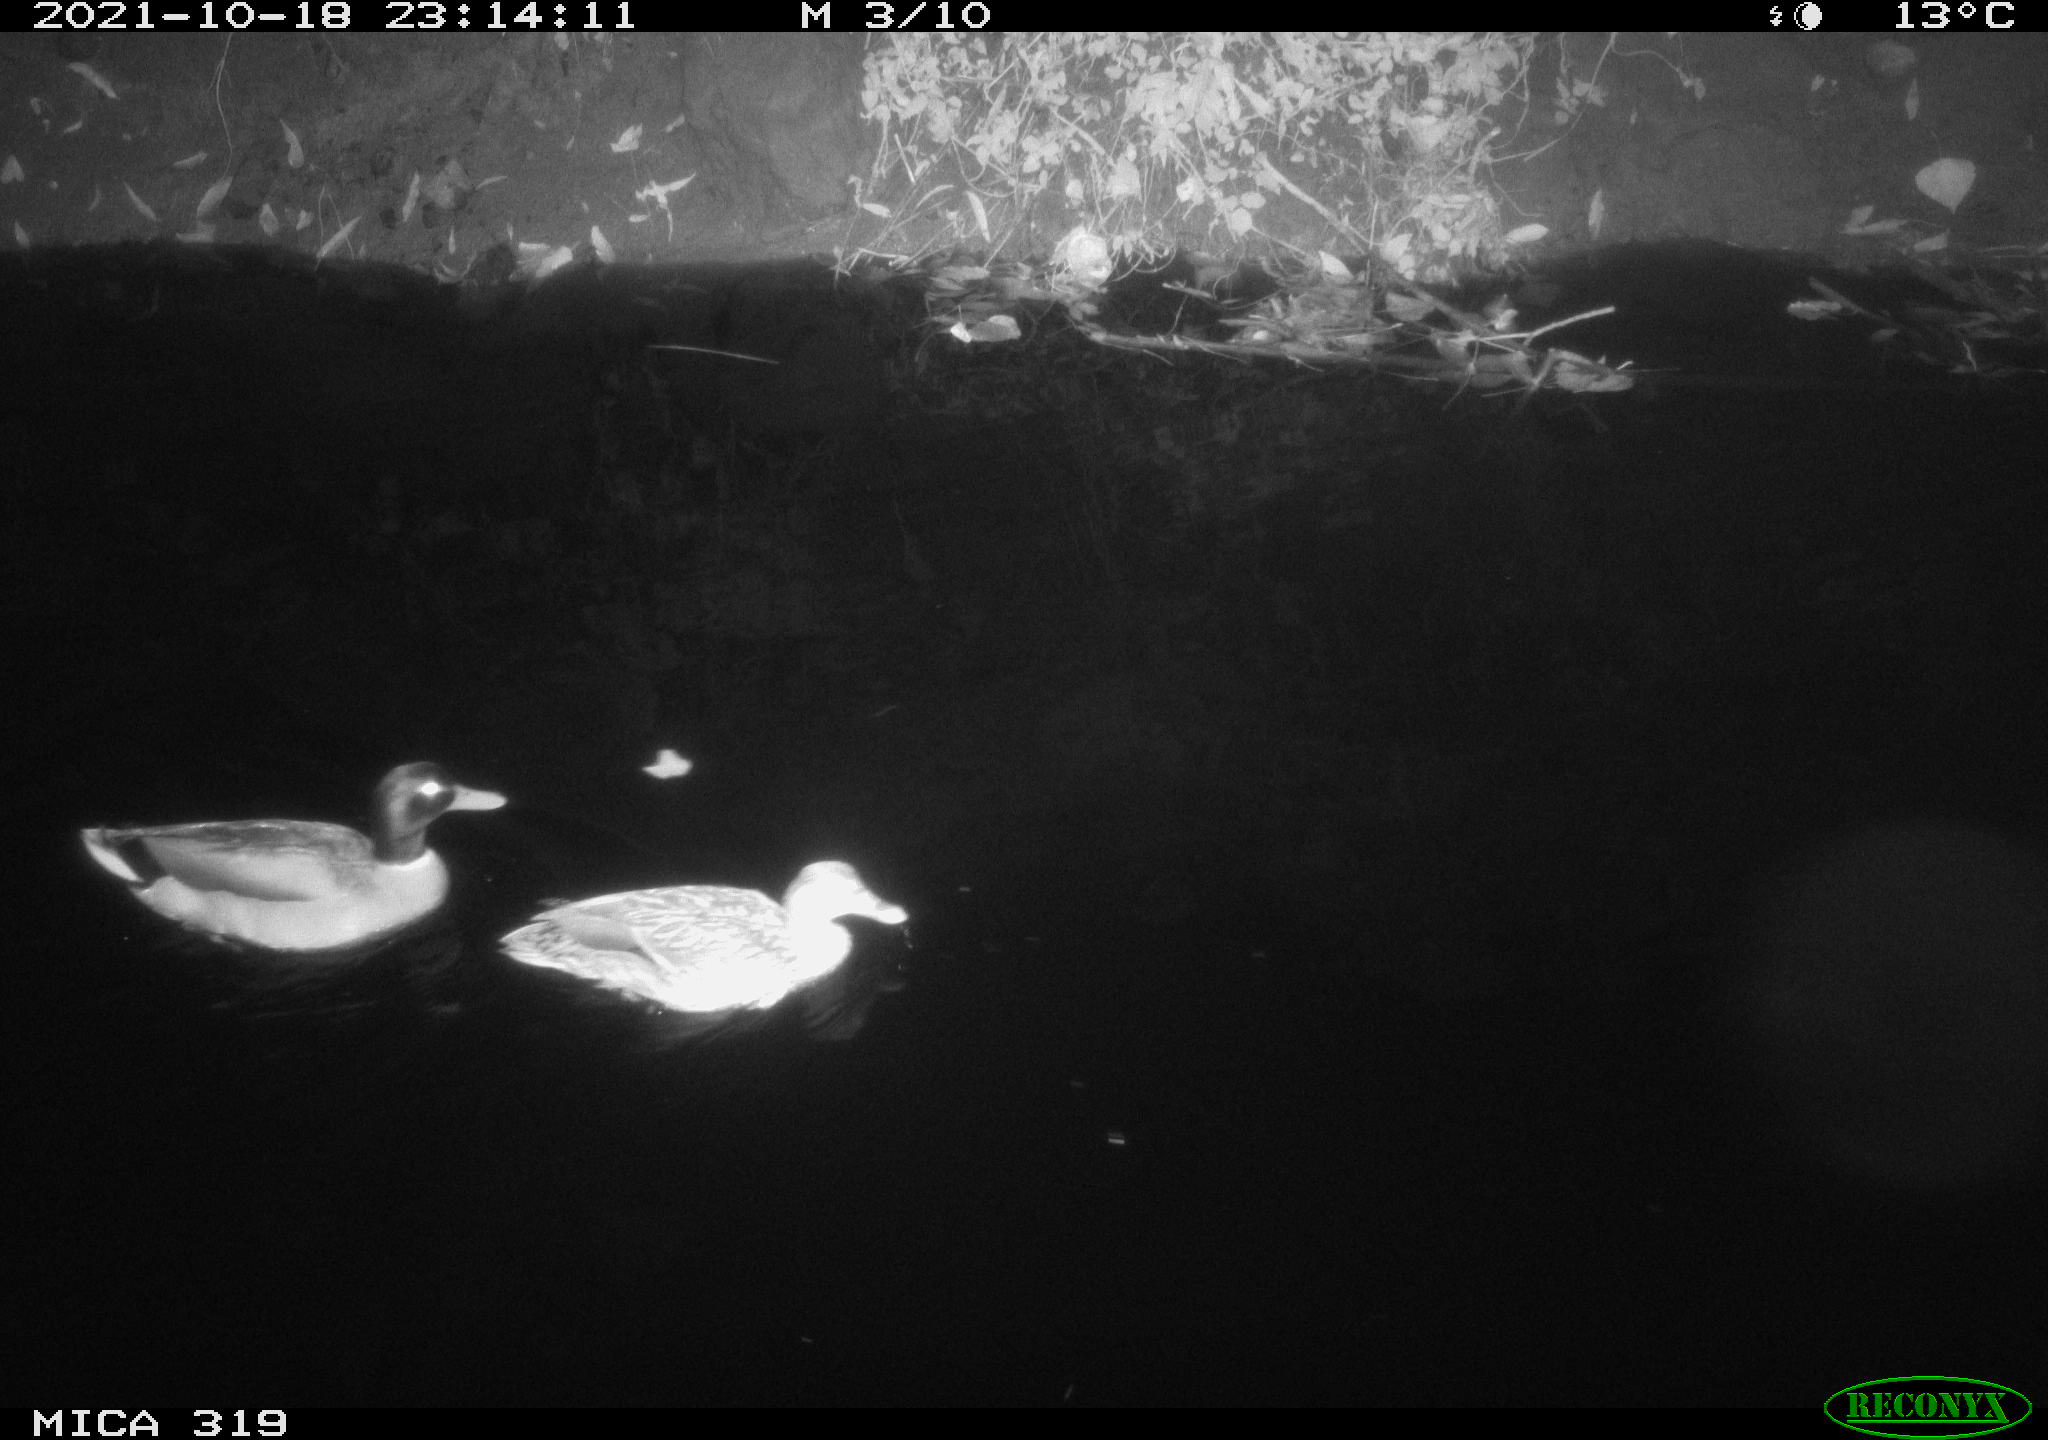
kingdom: Animalia
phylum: Chordata
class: Aves
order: Anseriformes
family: Anatidae
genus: Anas
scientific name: Anas platyrhynchos
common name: Mallard
